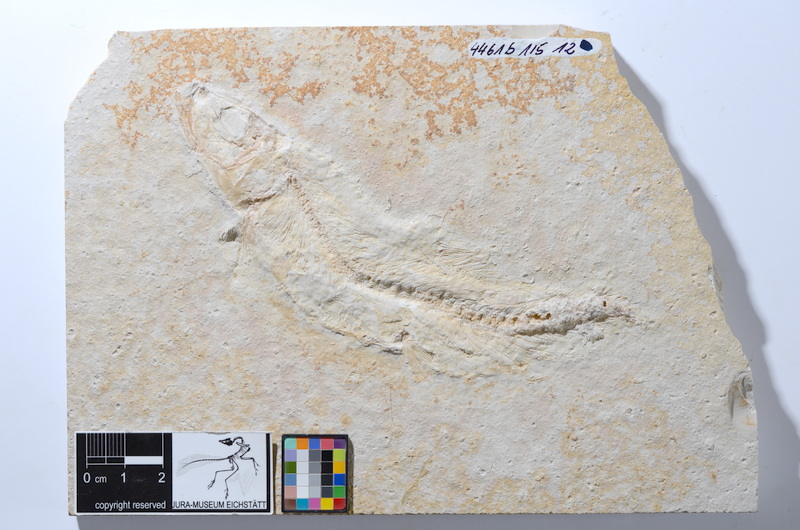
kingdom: Animalia
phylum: Chordata
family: Ascalaboidae
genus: Tharsis
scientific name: Tharsis dubius
